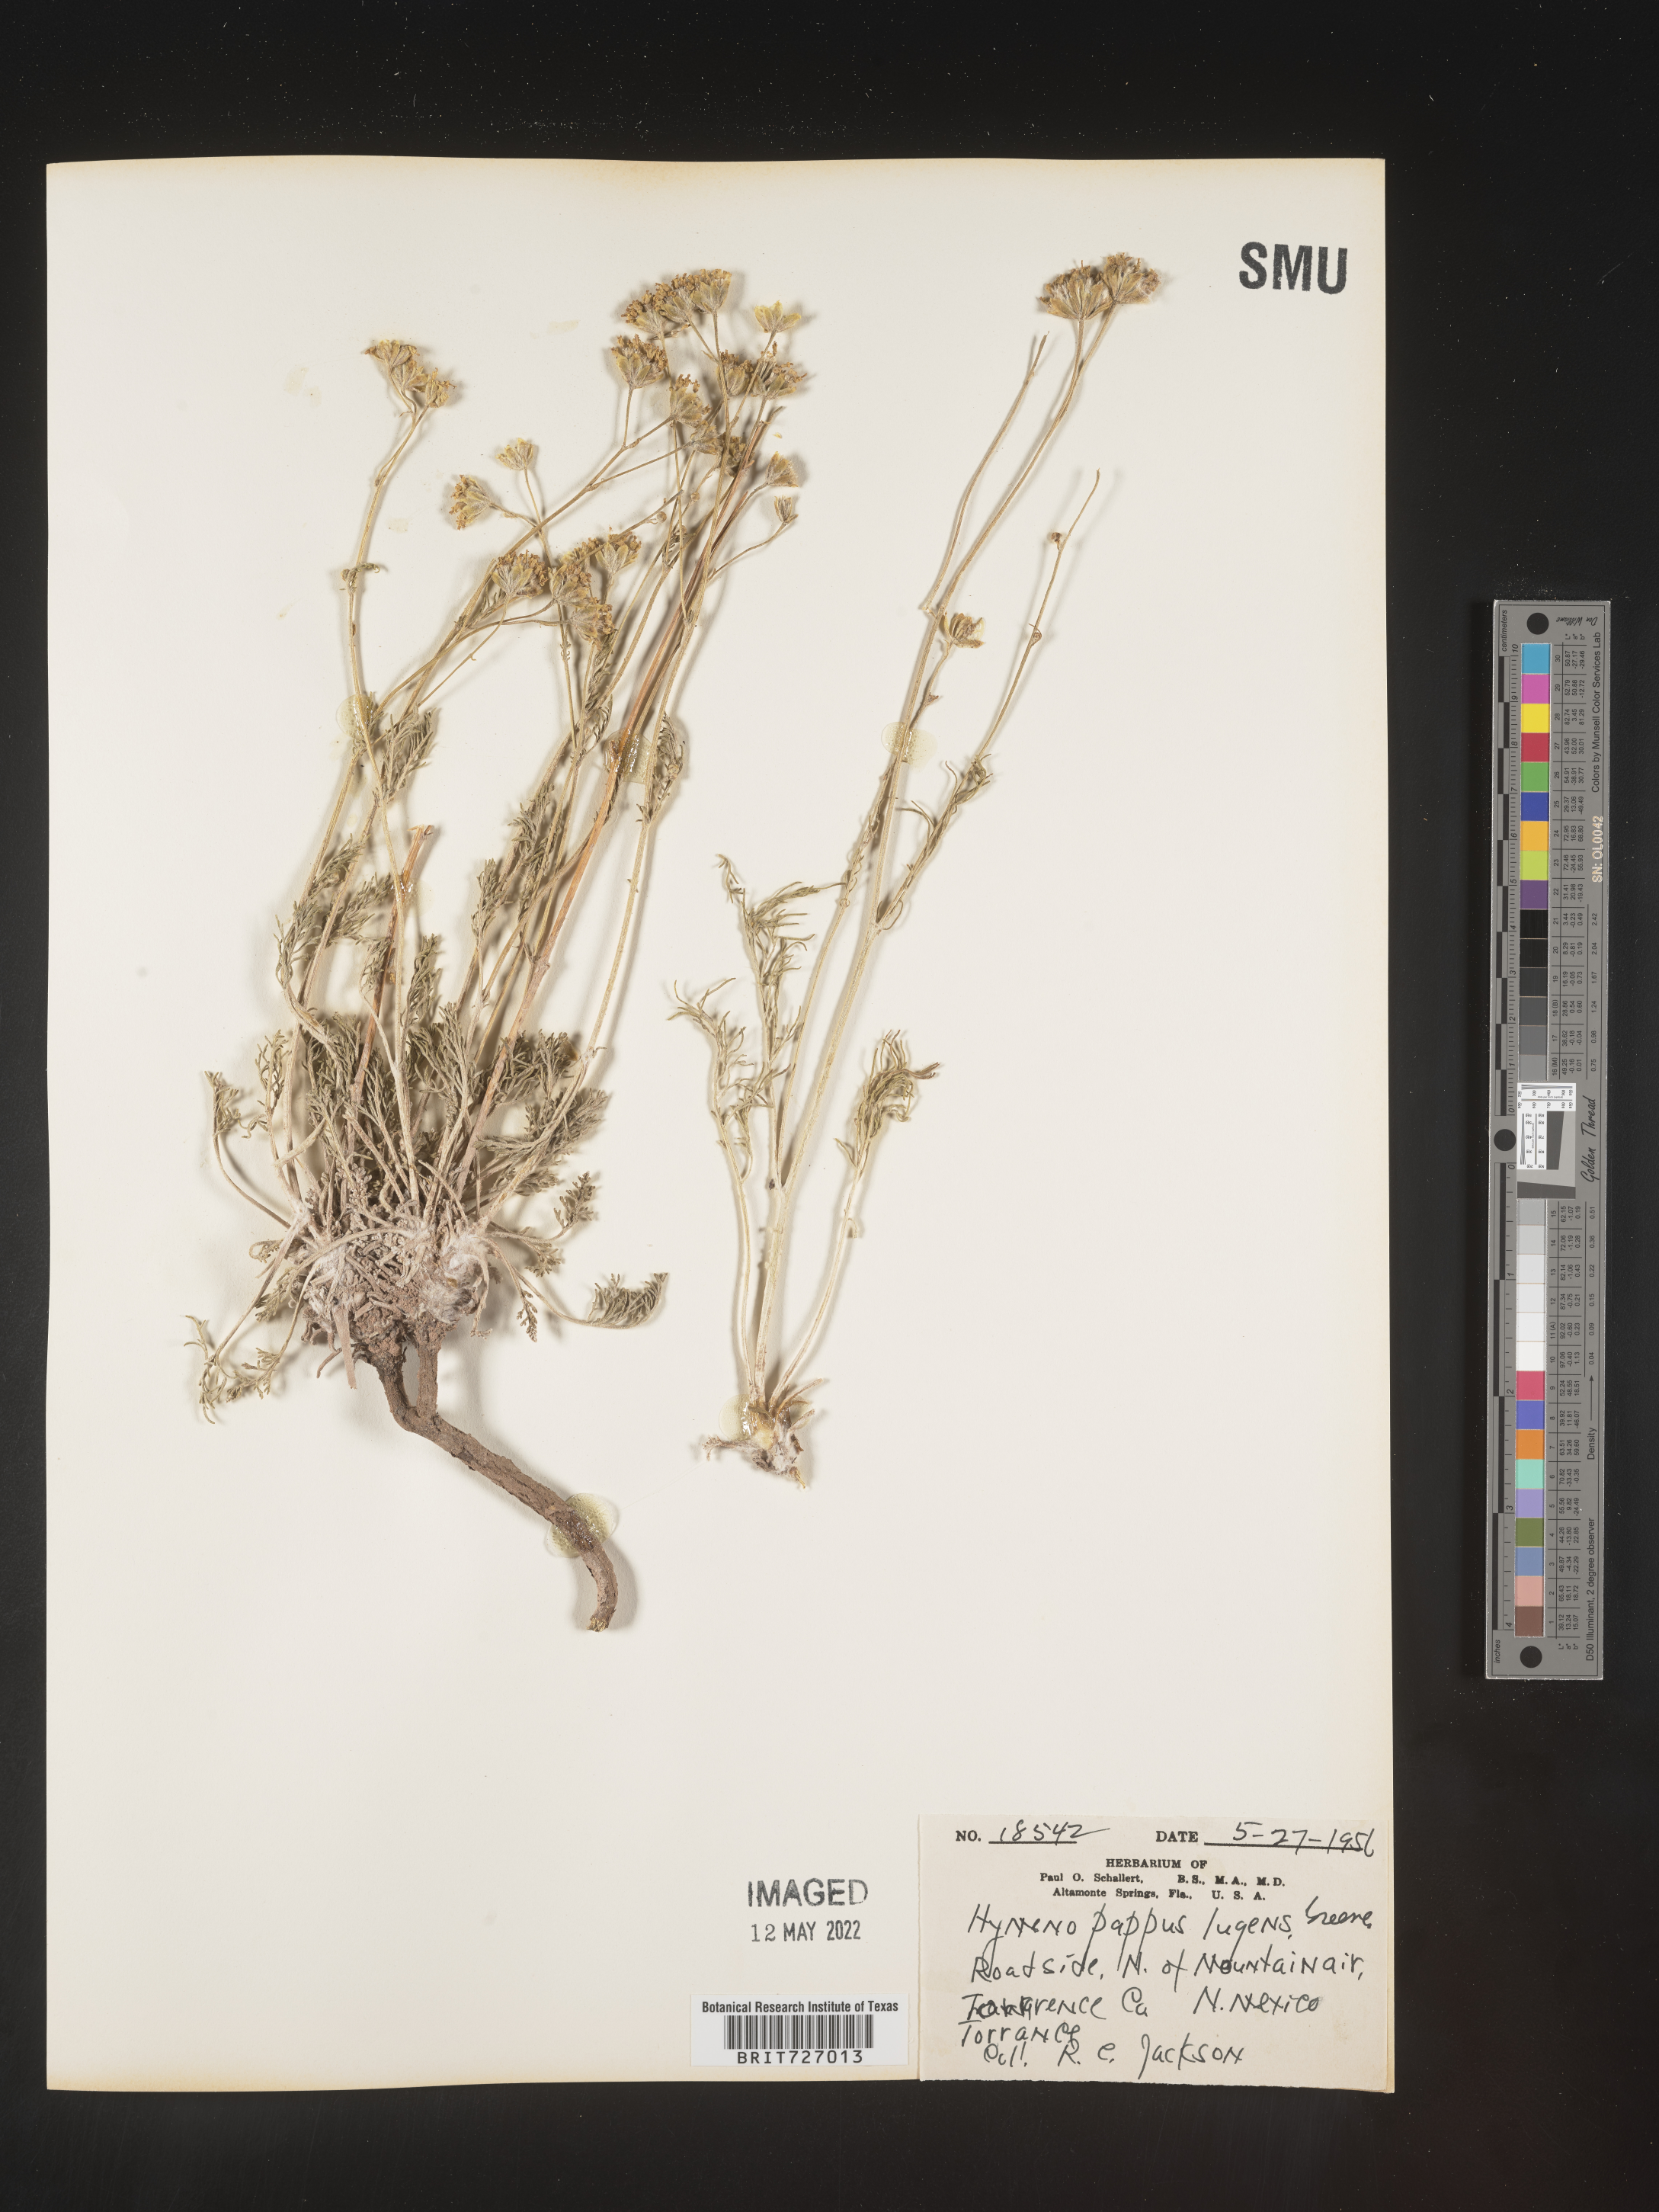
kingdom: Plantae
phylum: Tracheophyta
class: Magnoliopsida
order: Asterales
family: Asteraceae
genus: Hymenopappus
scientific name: Hymenopappus filifolius
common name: Columbia cutleaf
